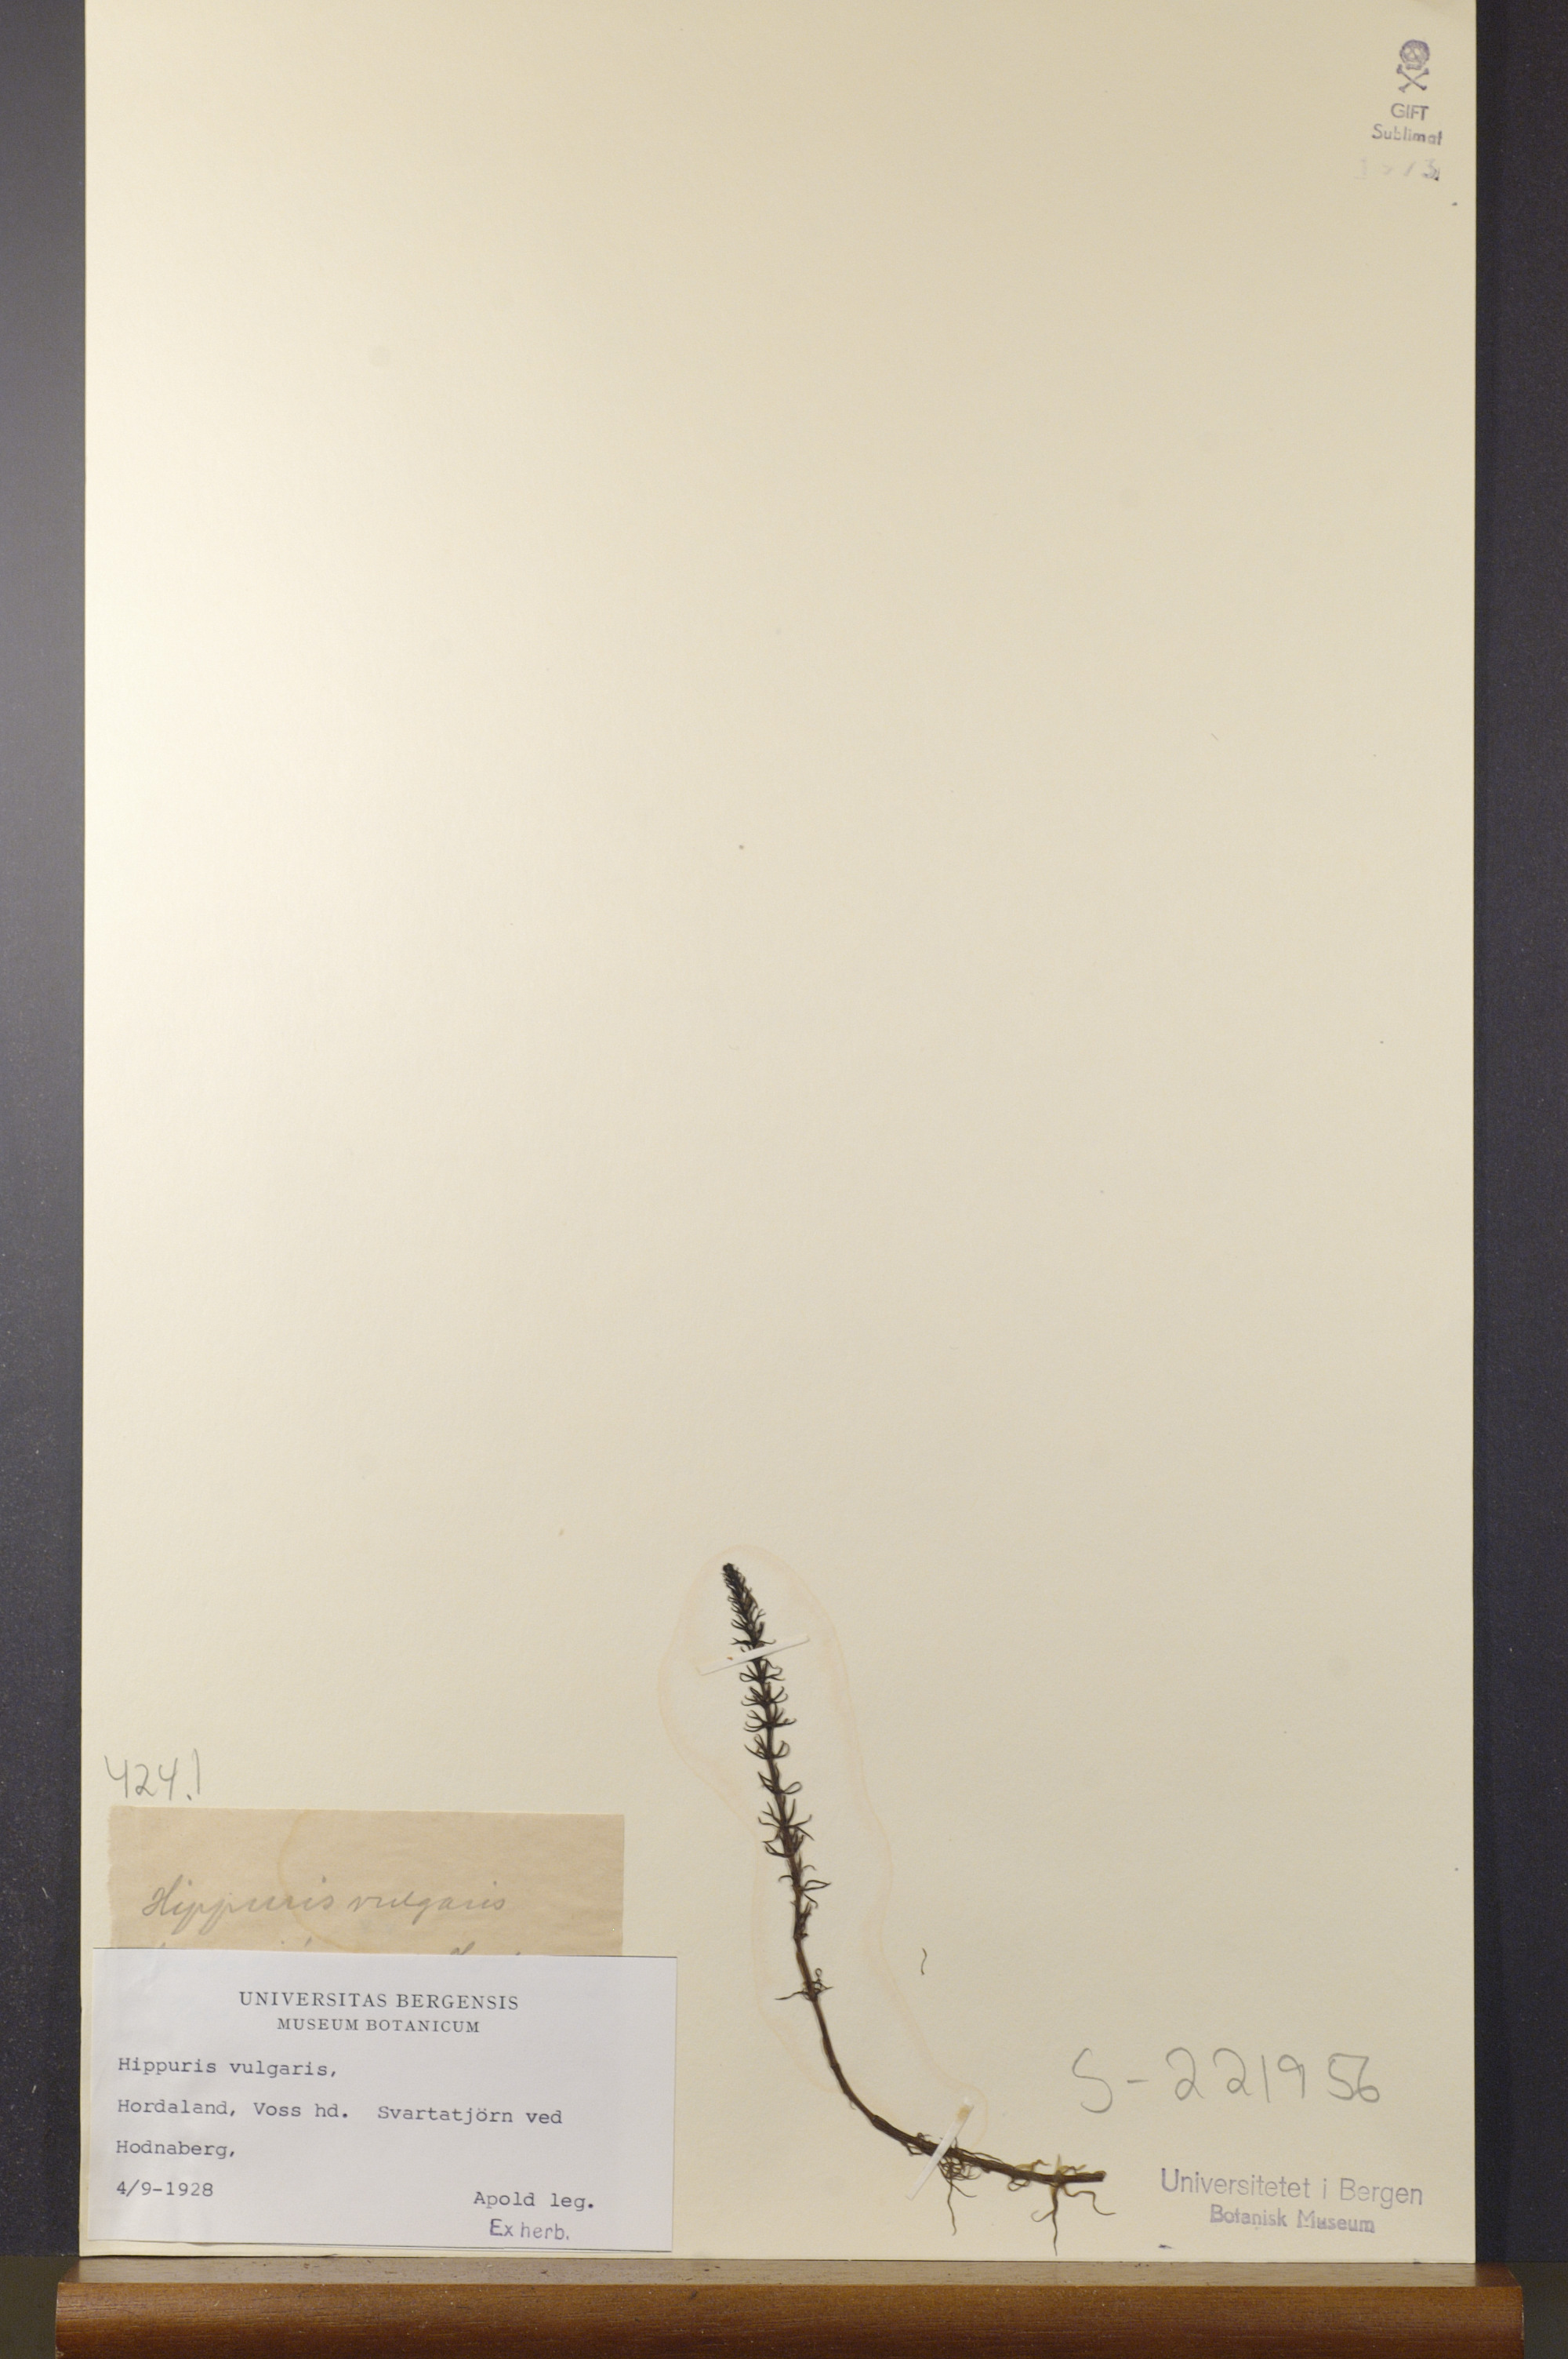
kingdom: Plantae
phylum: Tracheophyta
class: Magnoliopsida
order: Lamiales
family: Plantaginaceae
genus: Hippuris
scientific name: Hippuris vulgaris
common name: Mare's-tail
